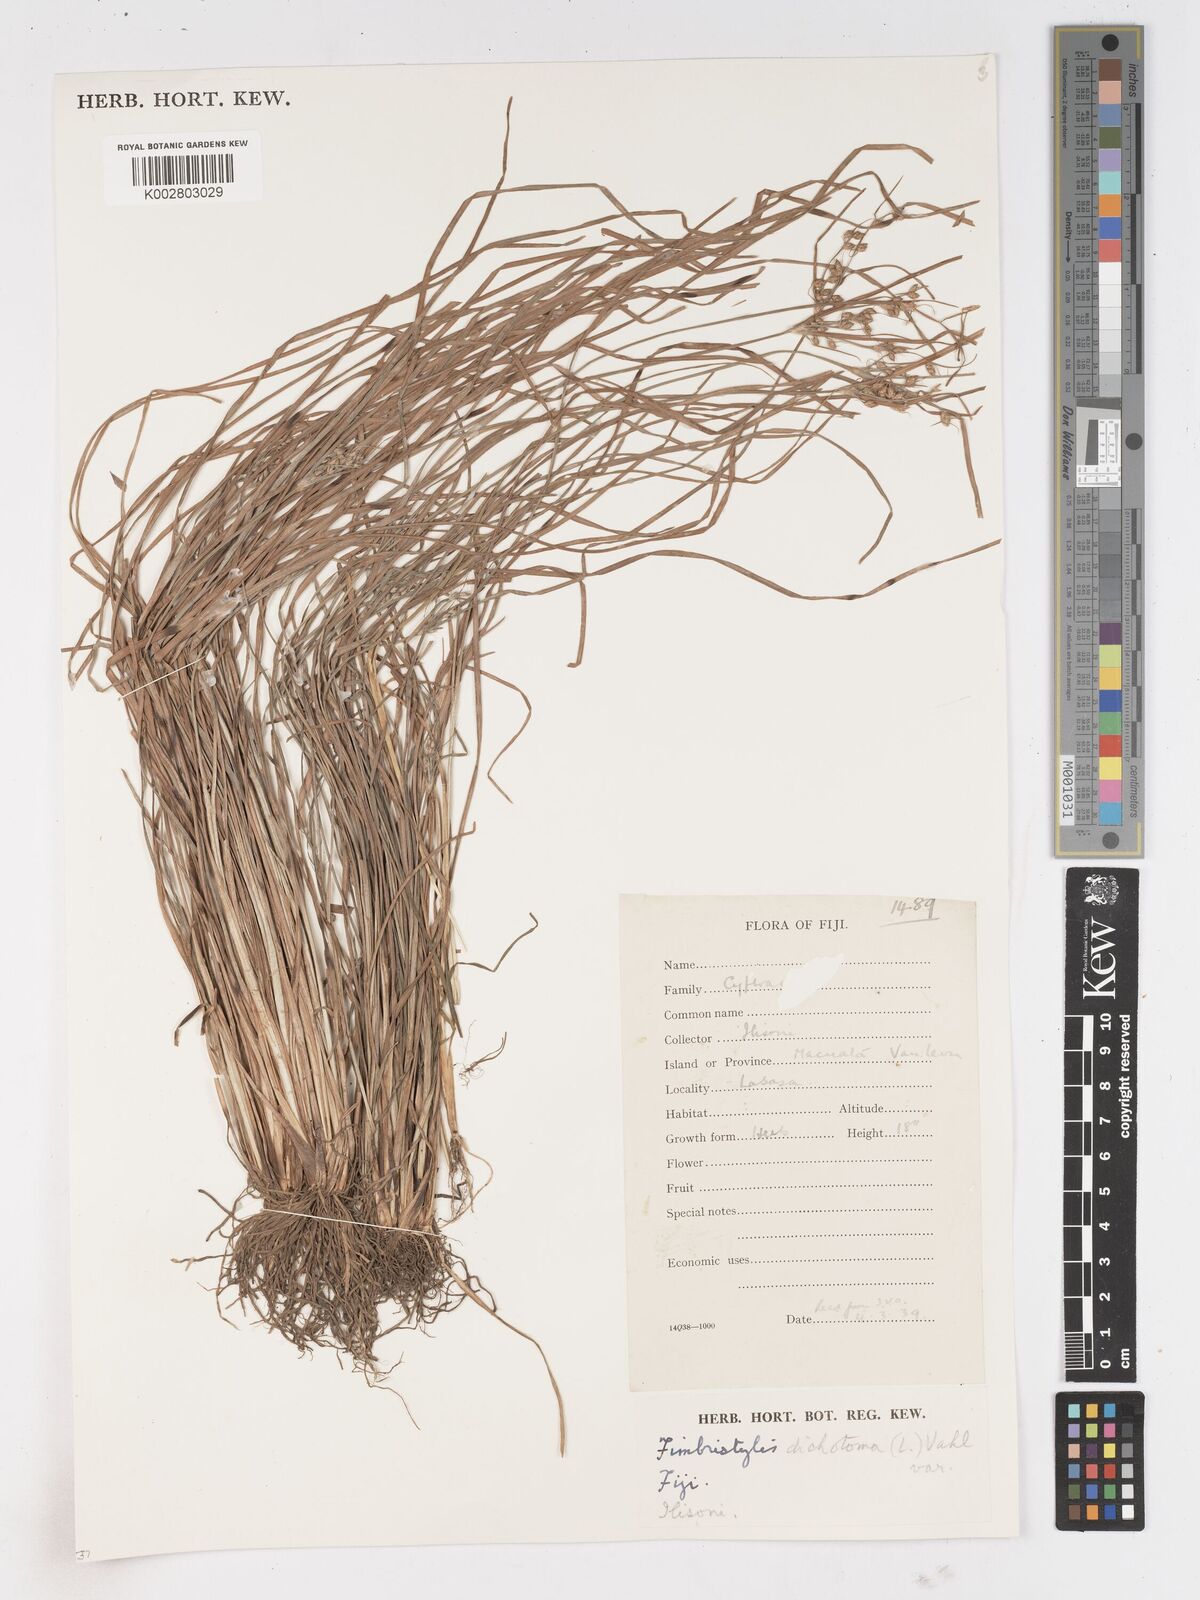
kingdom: Plantae
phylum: Tracheophyta
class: Liliopsida
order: Poales
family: Cyperaceae
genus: Fimbristylis
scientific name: Fimbristylis dichotoma
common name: Forked fimbry
